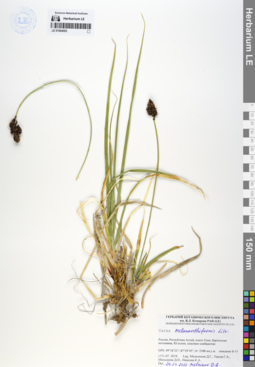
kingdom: Plantae
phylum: Tracheophyta
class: Liliopsida
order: Poales
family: Cyperaceae
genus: Carex
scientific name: Carex melananthiformis
